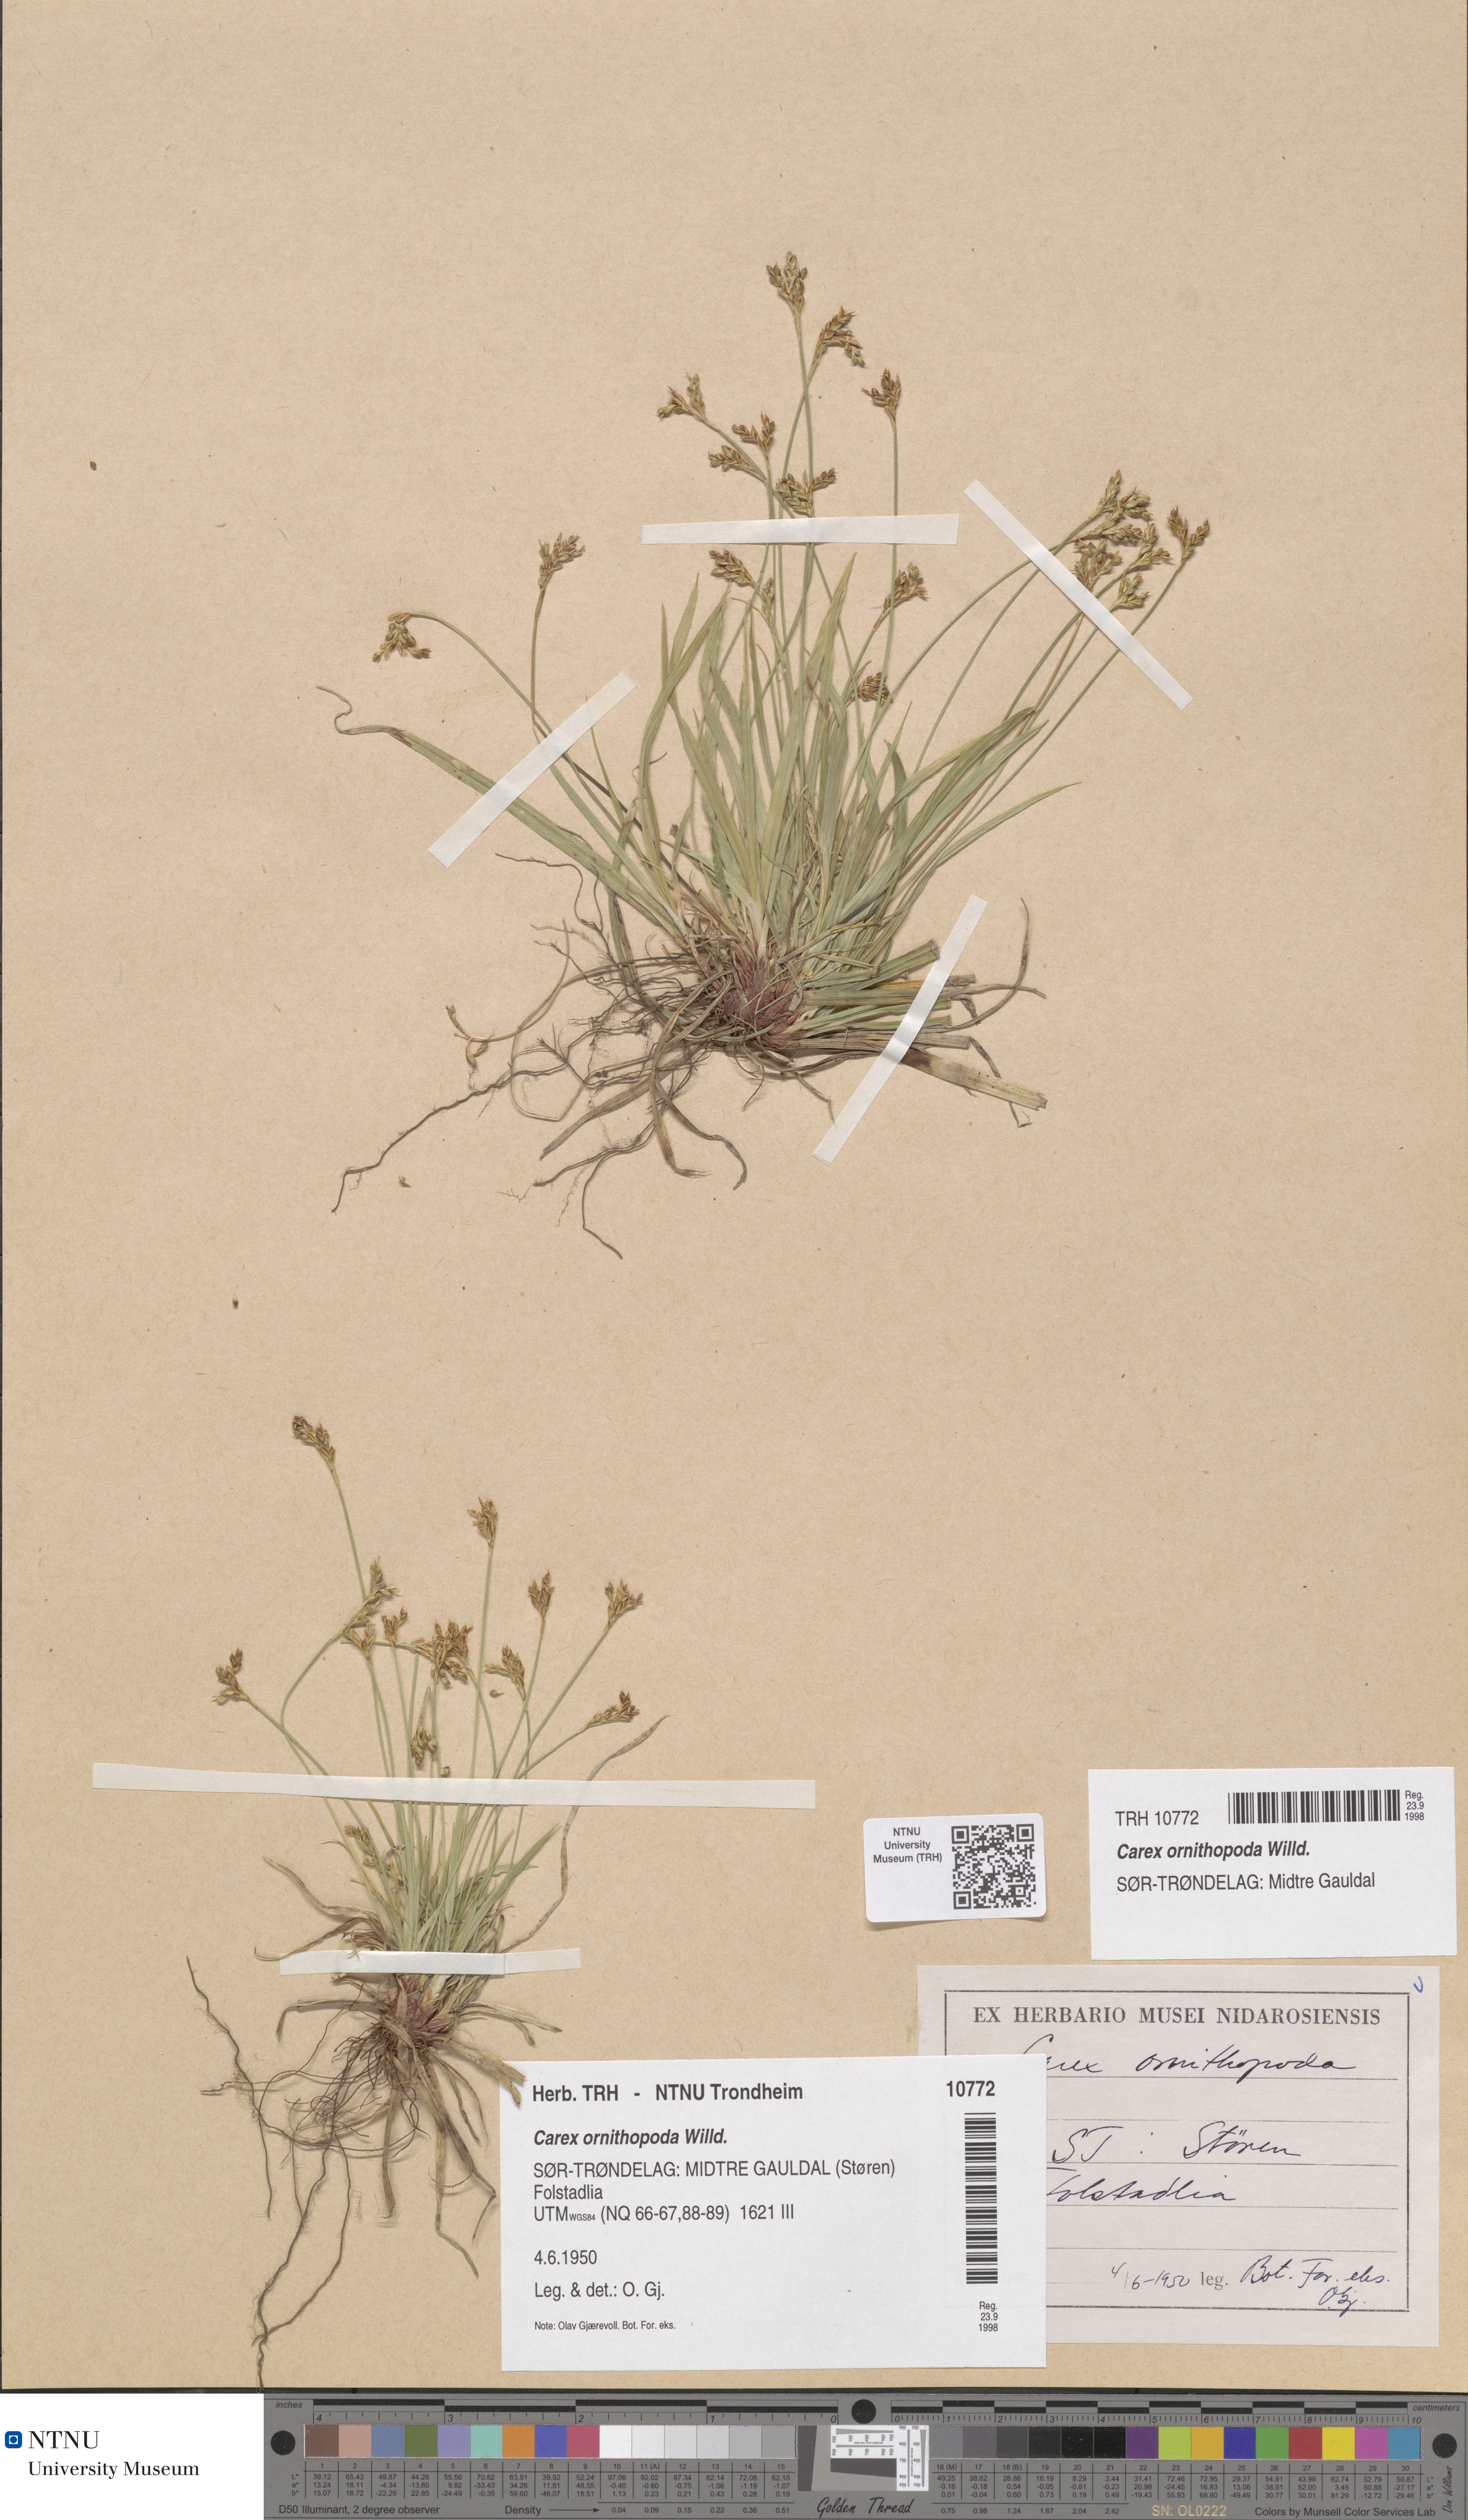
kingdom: Plantae
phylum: Tracheophyta
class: Liliopsida
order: Poales
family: Cyperaceae
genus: Carex
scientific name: Carex ornithopoda
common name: Bird's-foot sedge
